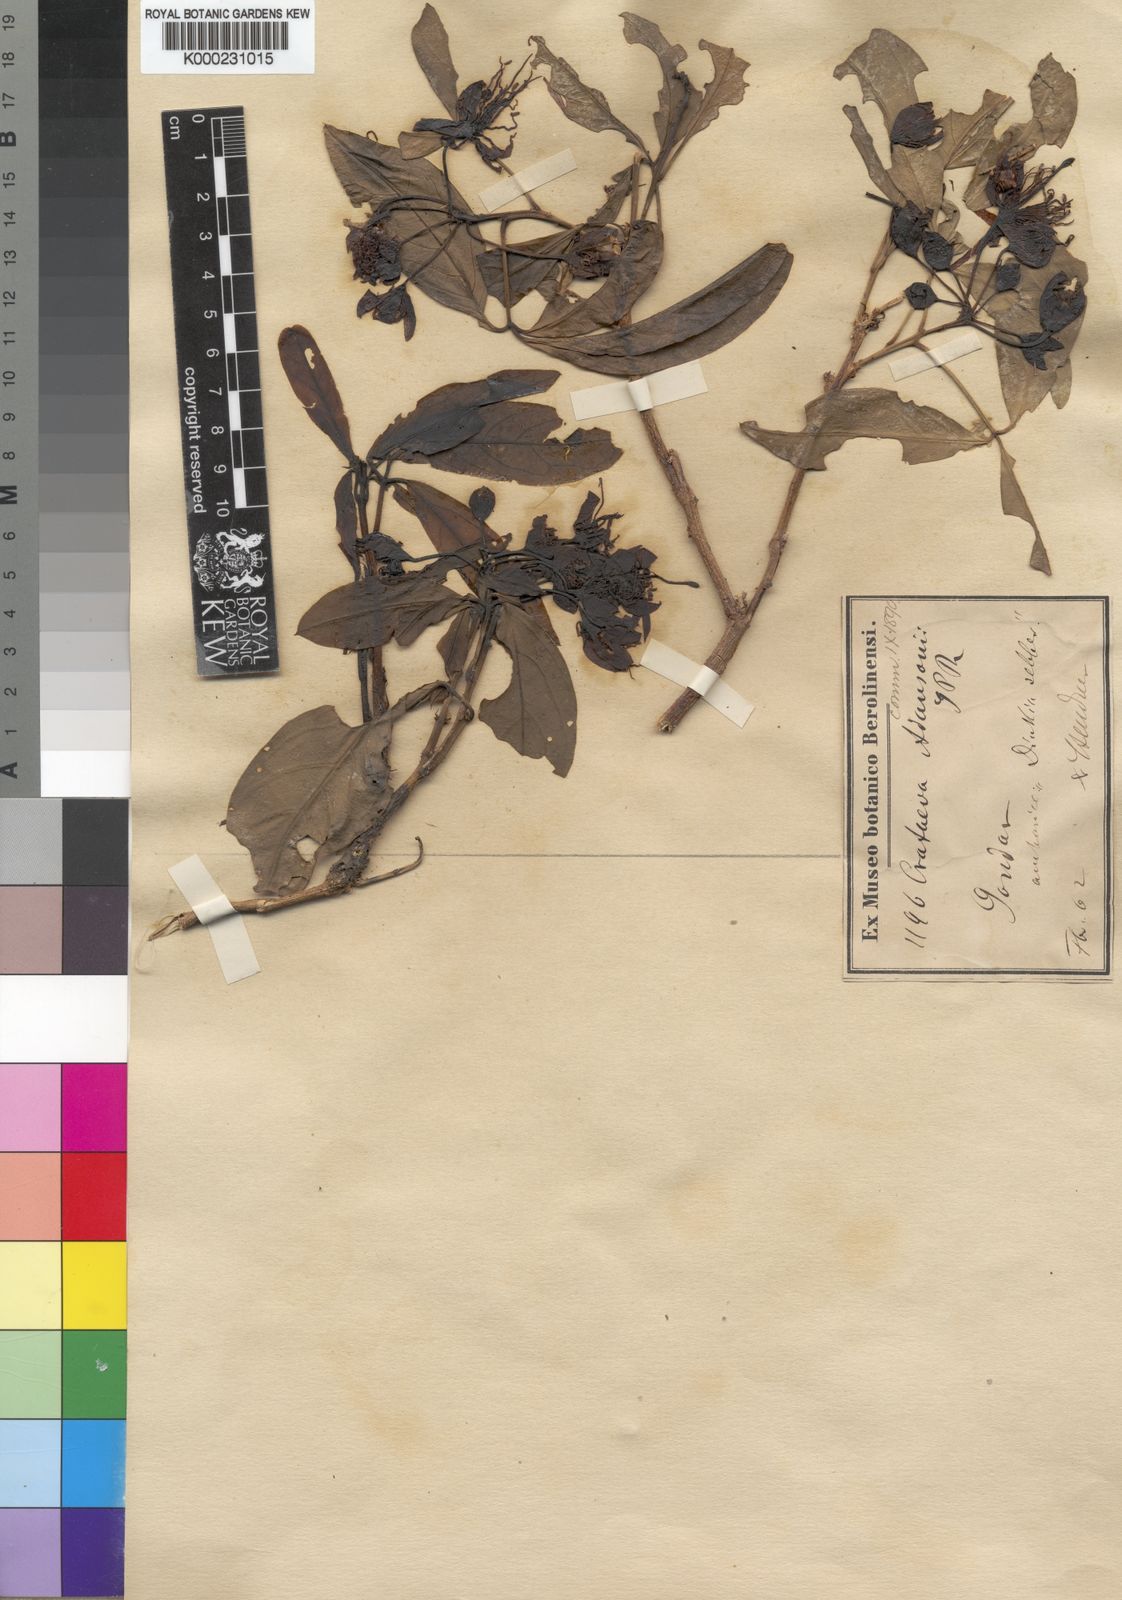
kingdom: Plantae
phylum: Tracheophyta
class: Magnoliopsida
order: Brassicales
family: Capparaceae
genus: Ritchiea
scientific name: Ritchiea albersii
